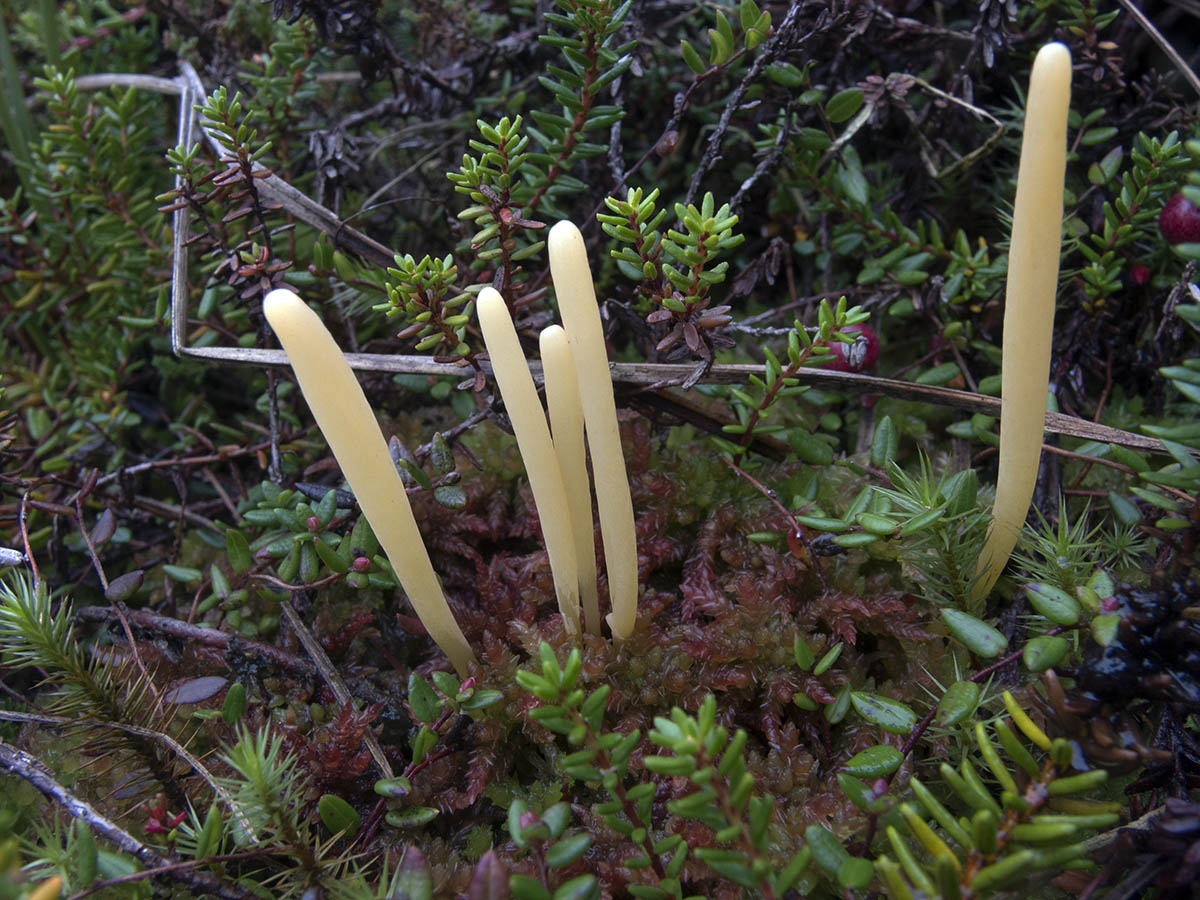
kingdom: Fungi
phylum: Basidiomycota
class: Agaricomycetes
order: Agaricales
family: Clavariaceae
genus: Clavaria
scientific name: Clavaria sphagnicola
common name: tørvemos-køllesvamp
